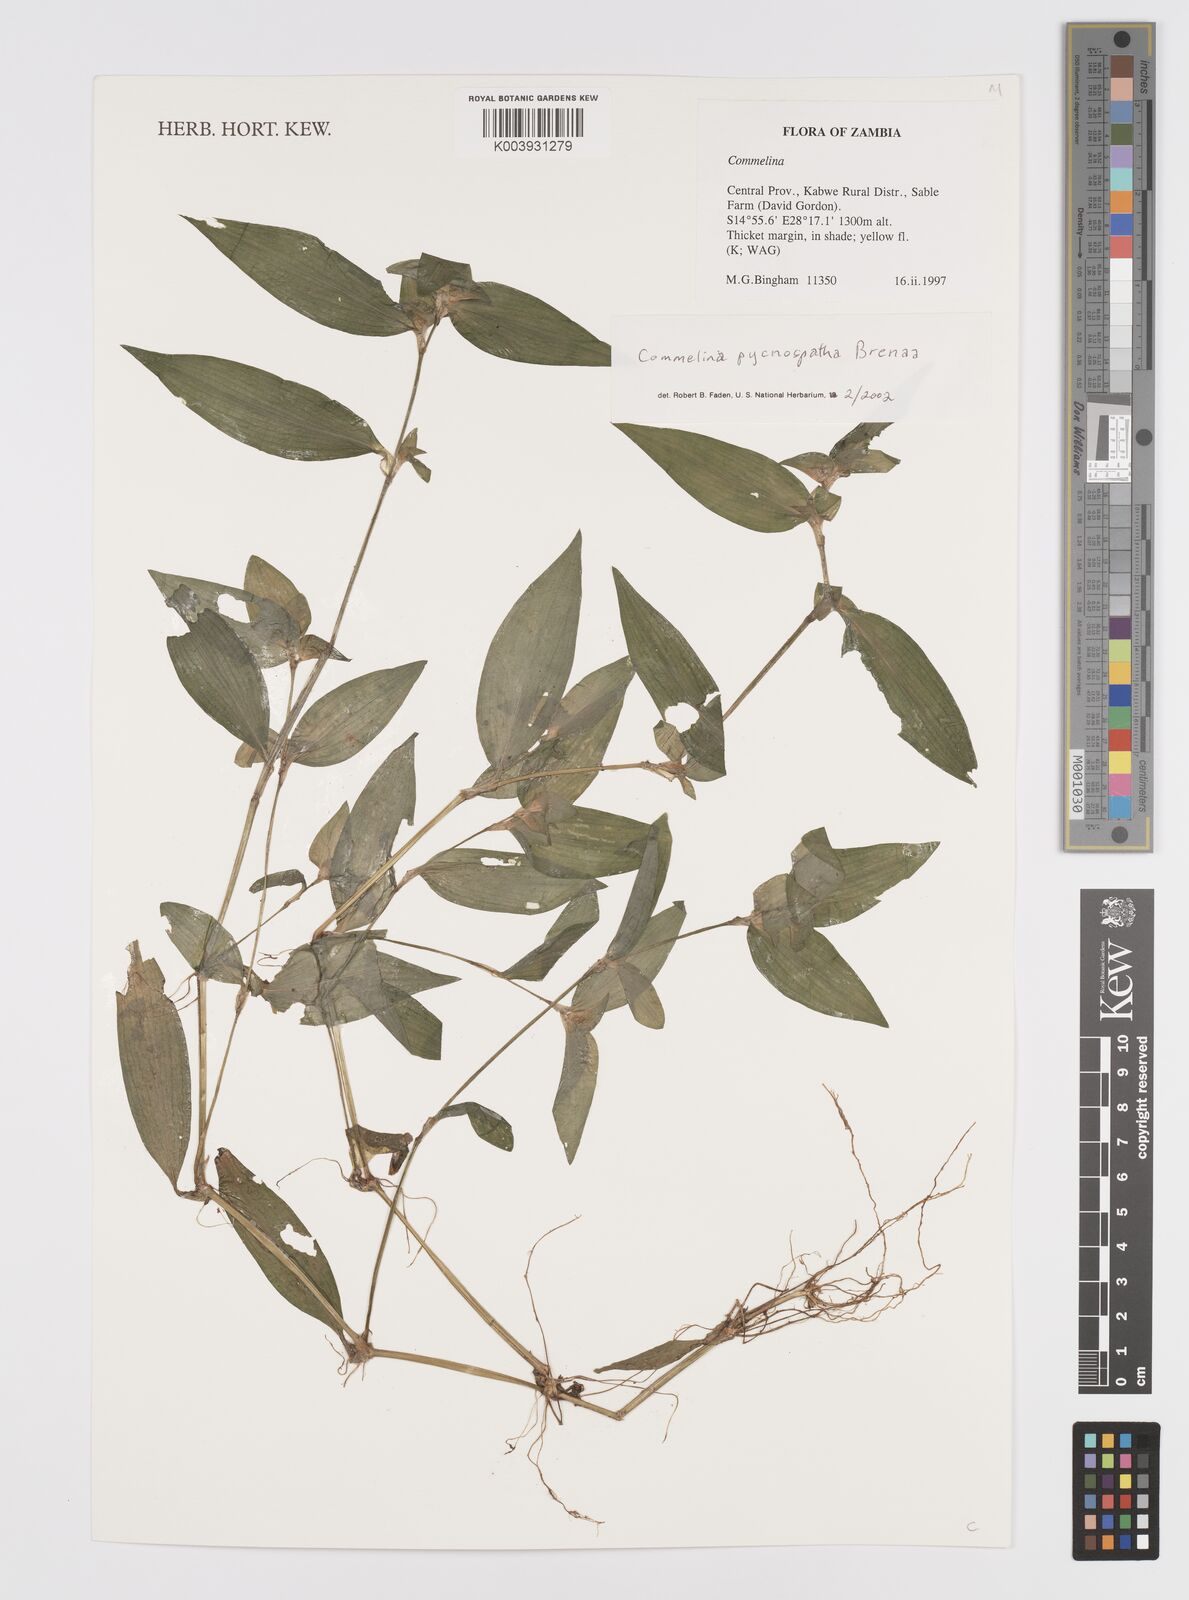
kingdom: Plantae
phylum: Tracheophyta
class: Liliopsida
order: Commelinales
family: Commelinaceae
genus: Commelina
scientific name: Commelina pycnospatha
